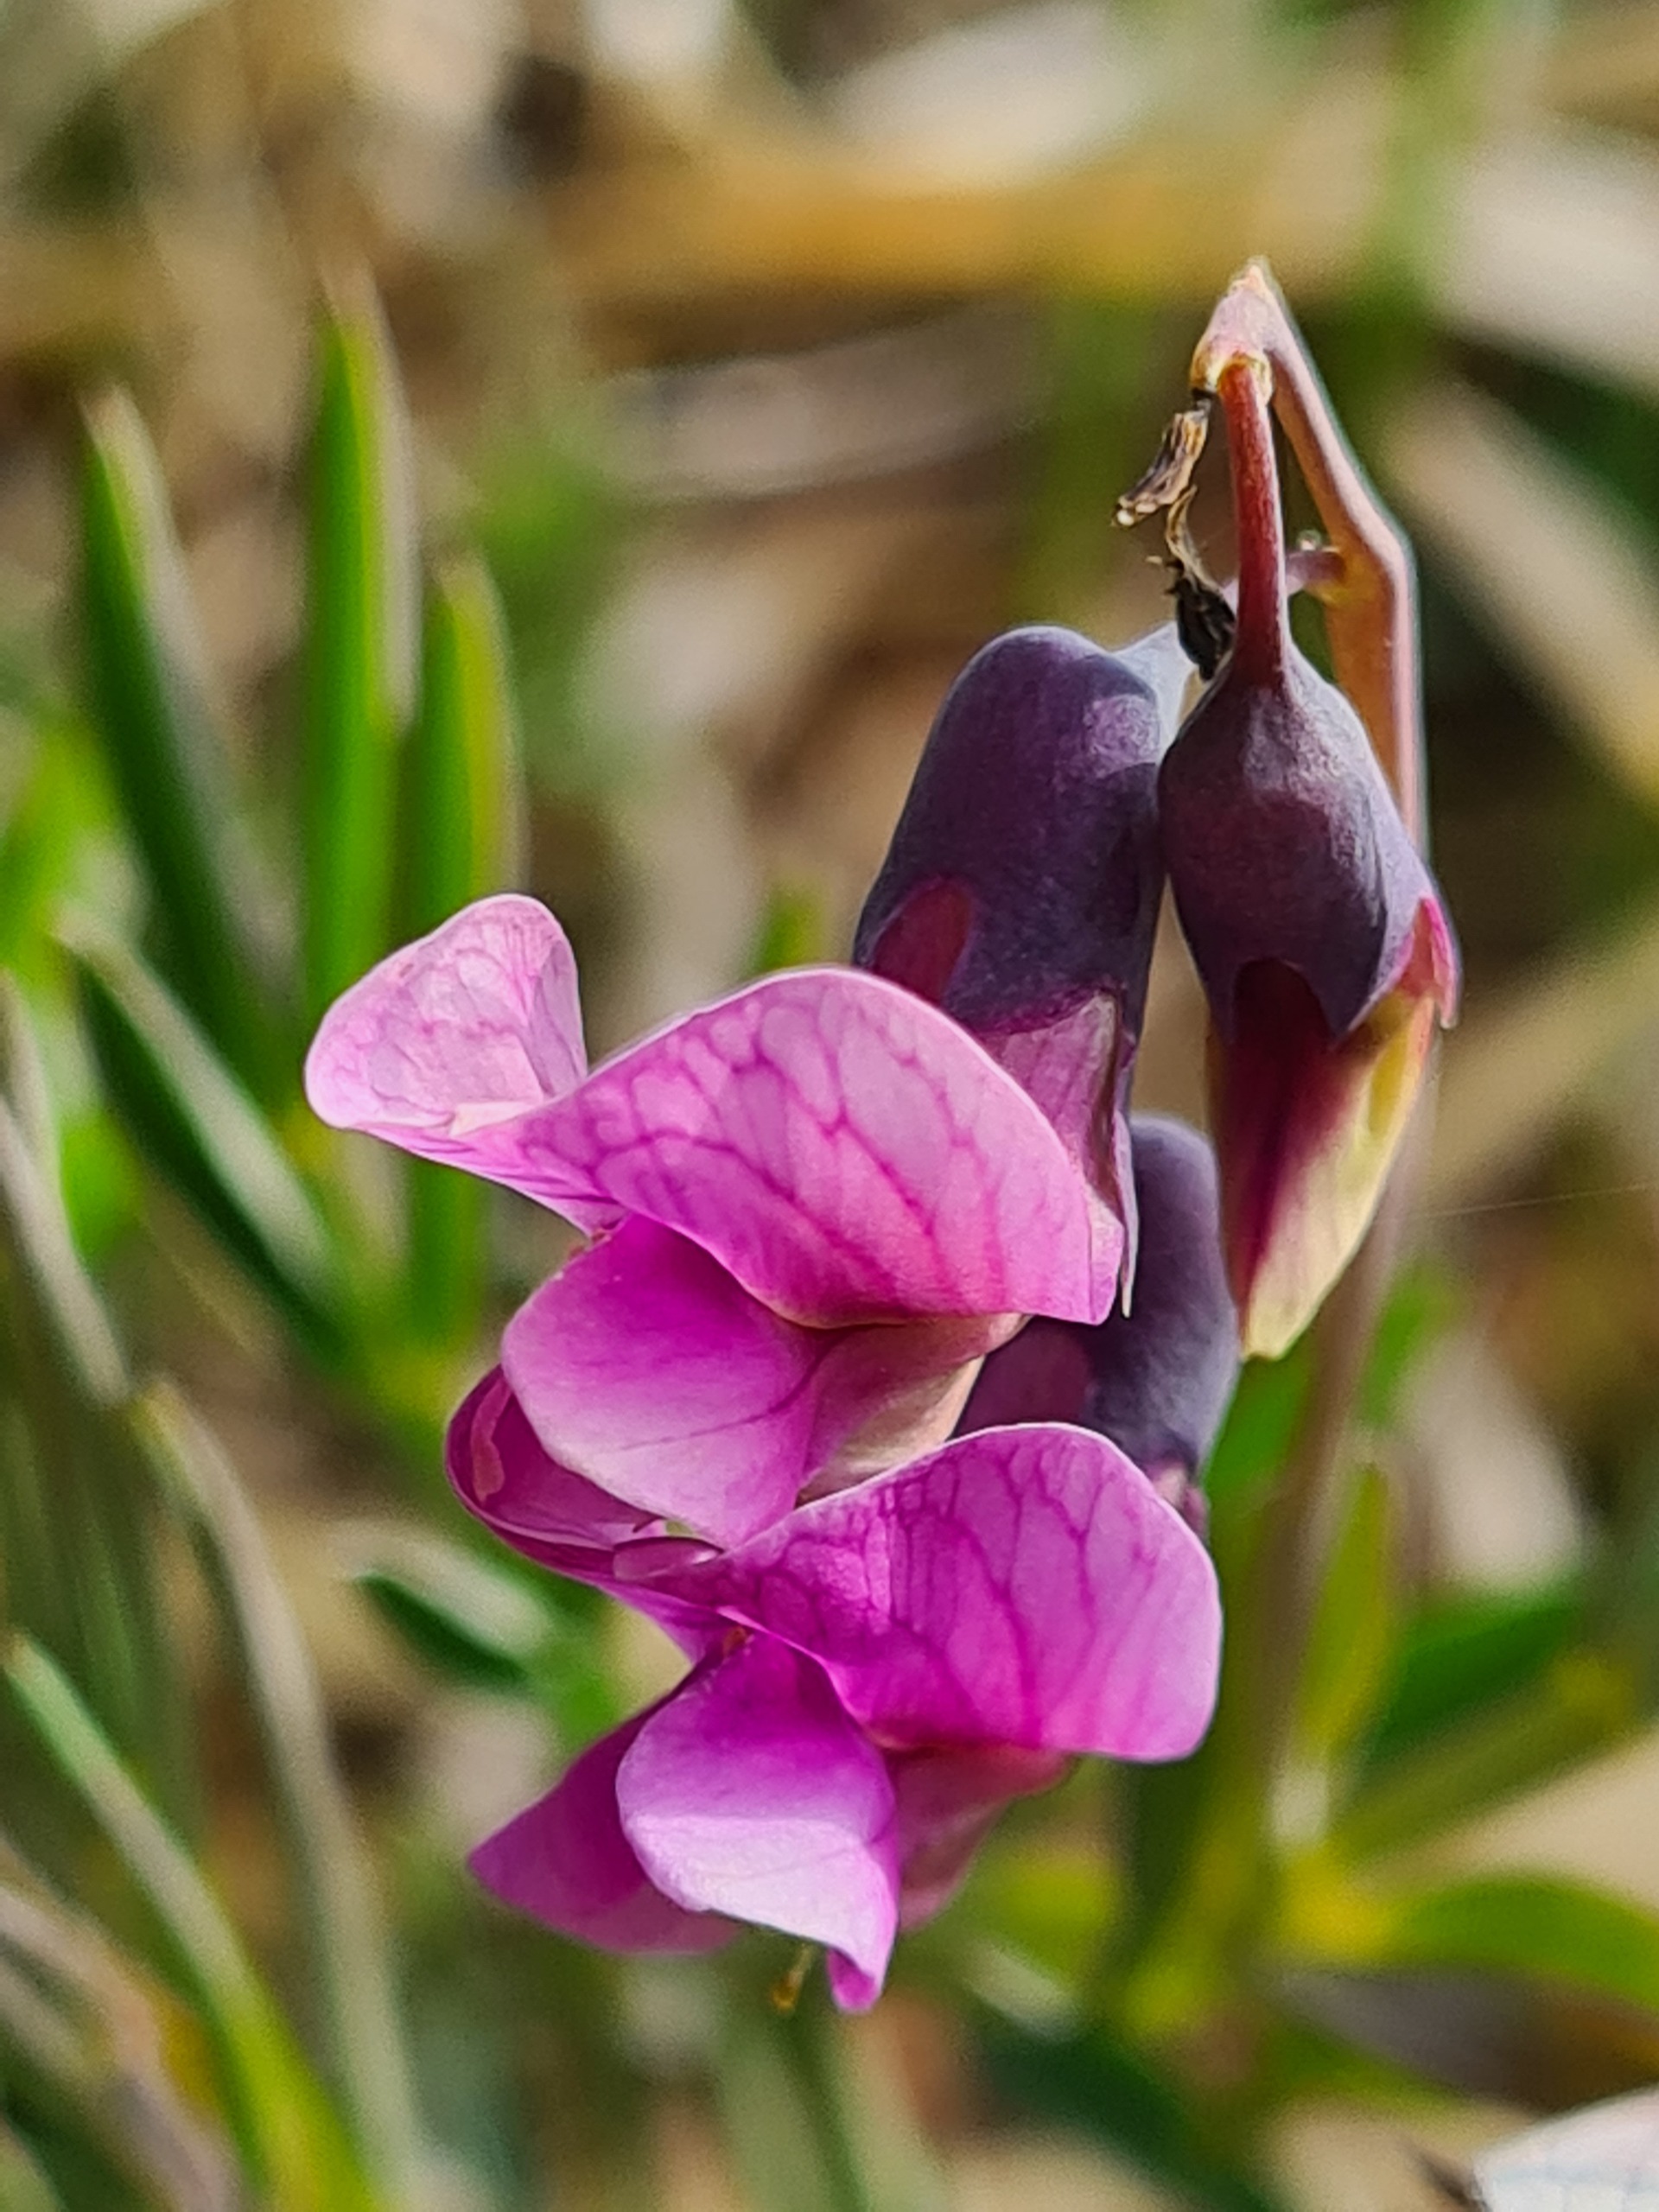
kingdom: Plantae
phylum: Tracheophyta
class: Magnoliopsida
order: Fabales
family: Fabaceae
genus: Lathyrus
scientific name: Lathyrus linifolius
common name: Krat-fladbælg
